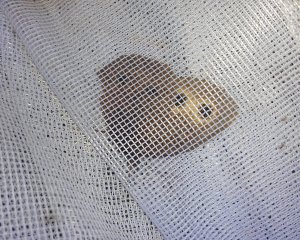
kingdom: Animalia
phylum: Arthropoda
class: Insecta
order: Lepidoptera
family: Nymphalidae
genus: Cercyonis
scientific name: Cercyonis pegala
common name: Common Wood-Nymph
